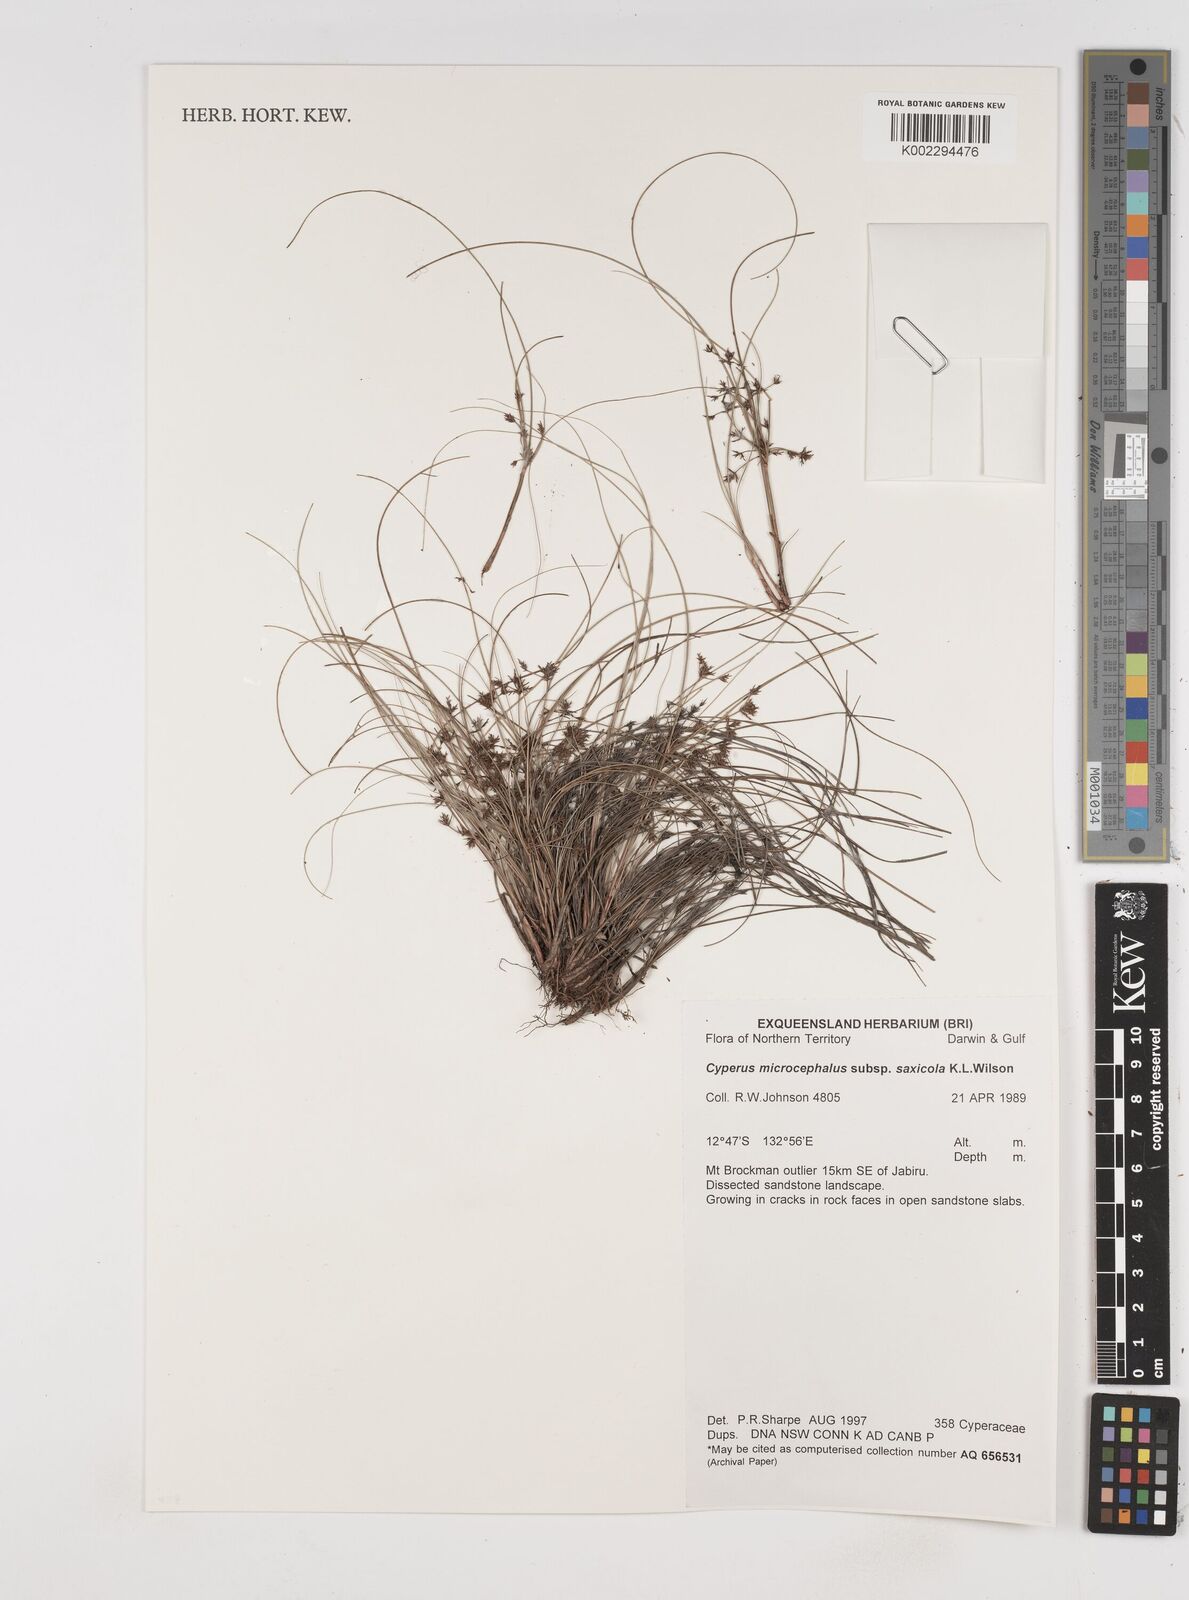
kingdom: Plantae
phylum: Tracheophyta
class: Liliopsida
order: Poales
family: Cyperaceae
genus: Cyperus
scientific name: Cyperus microcephalus
